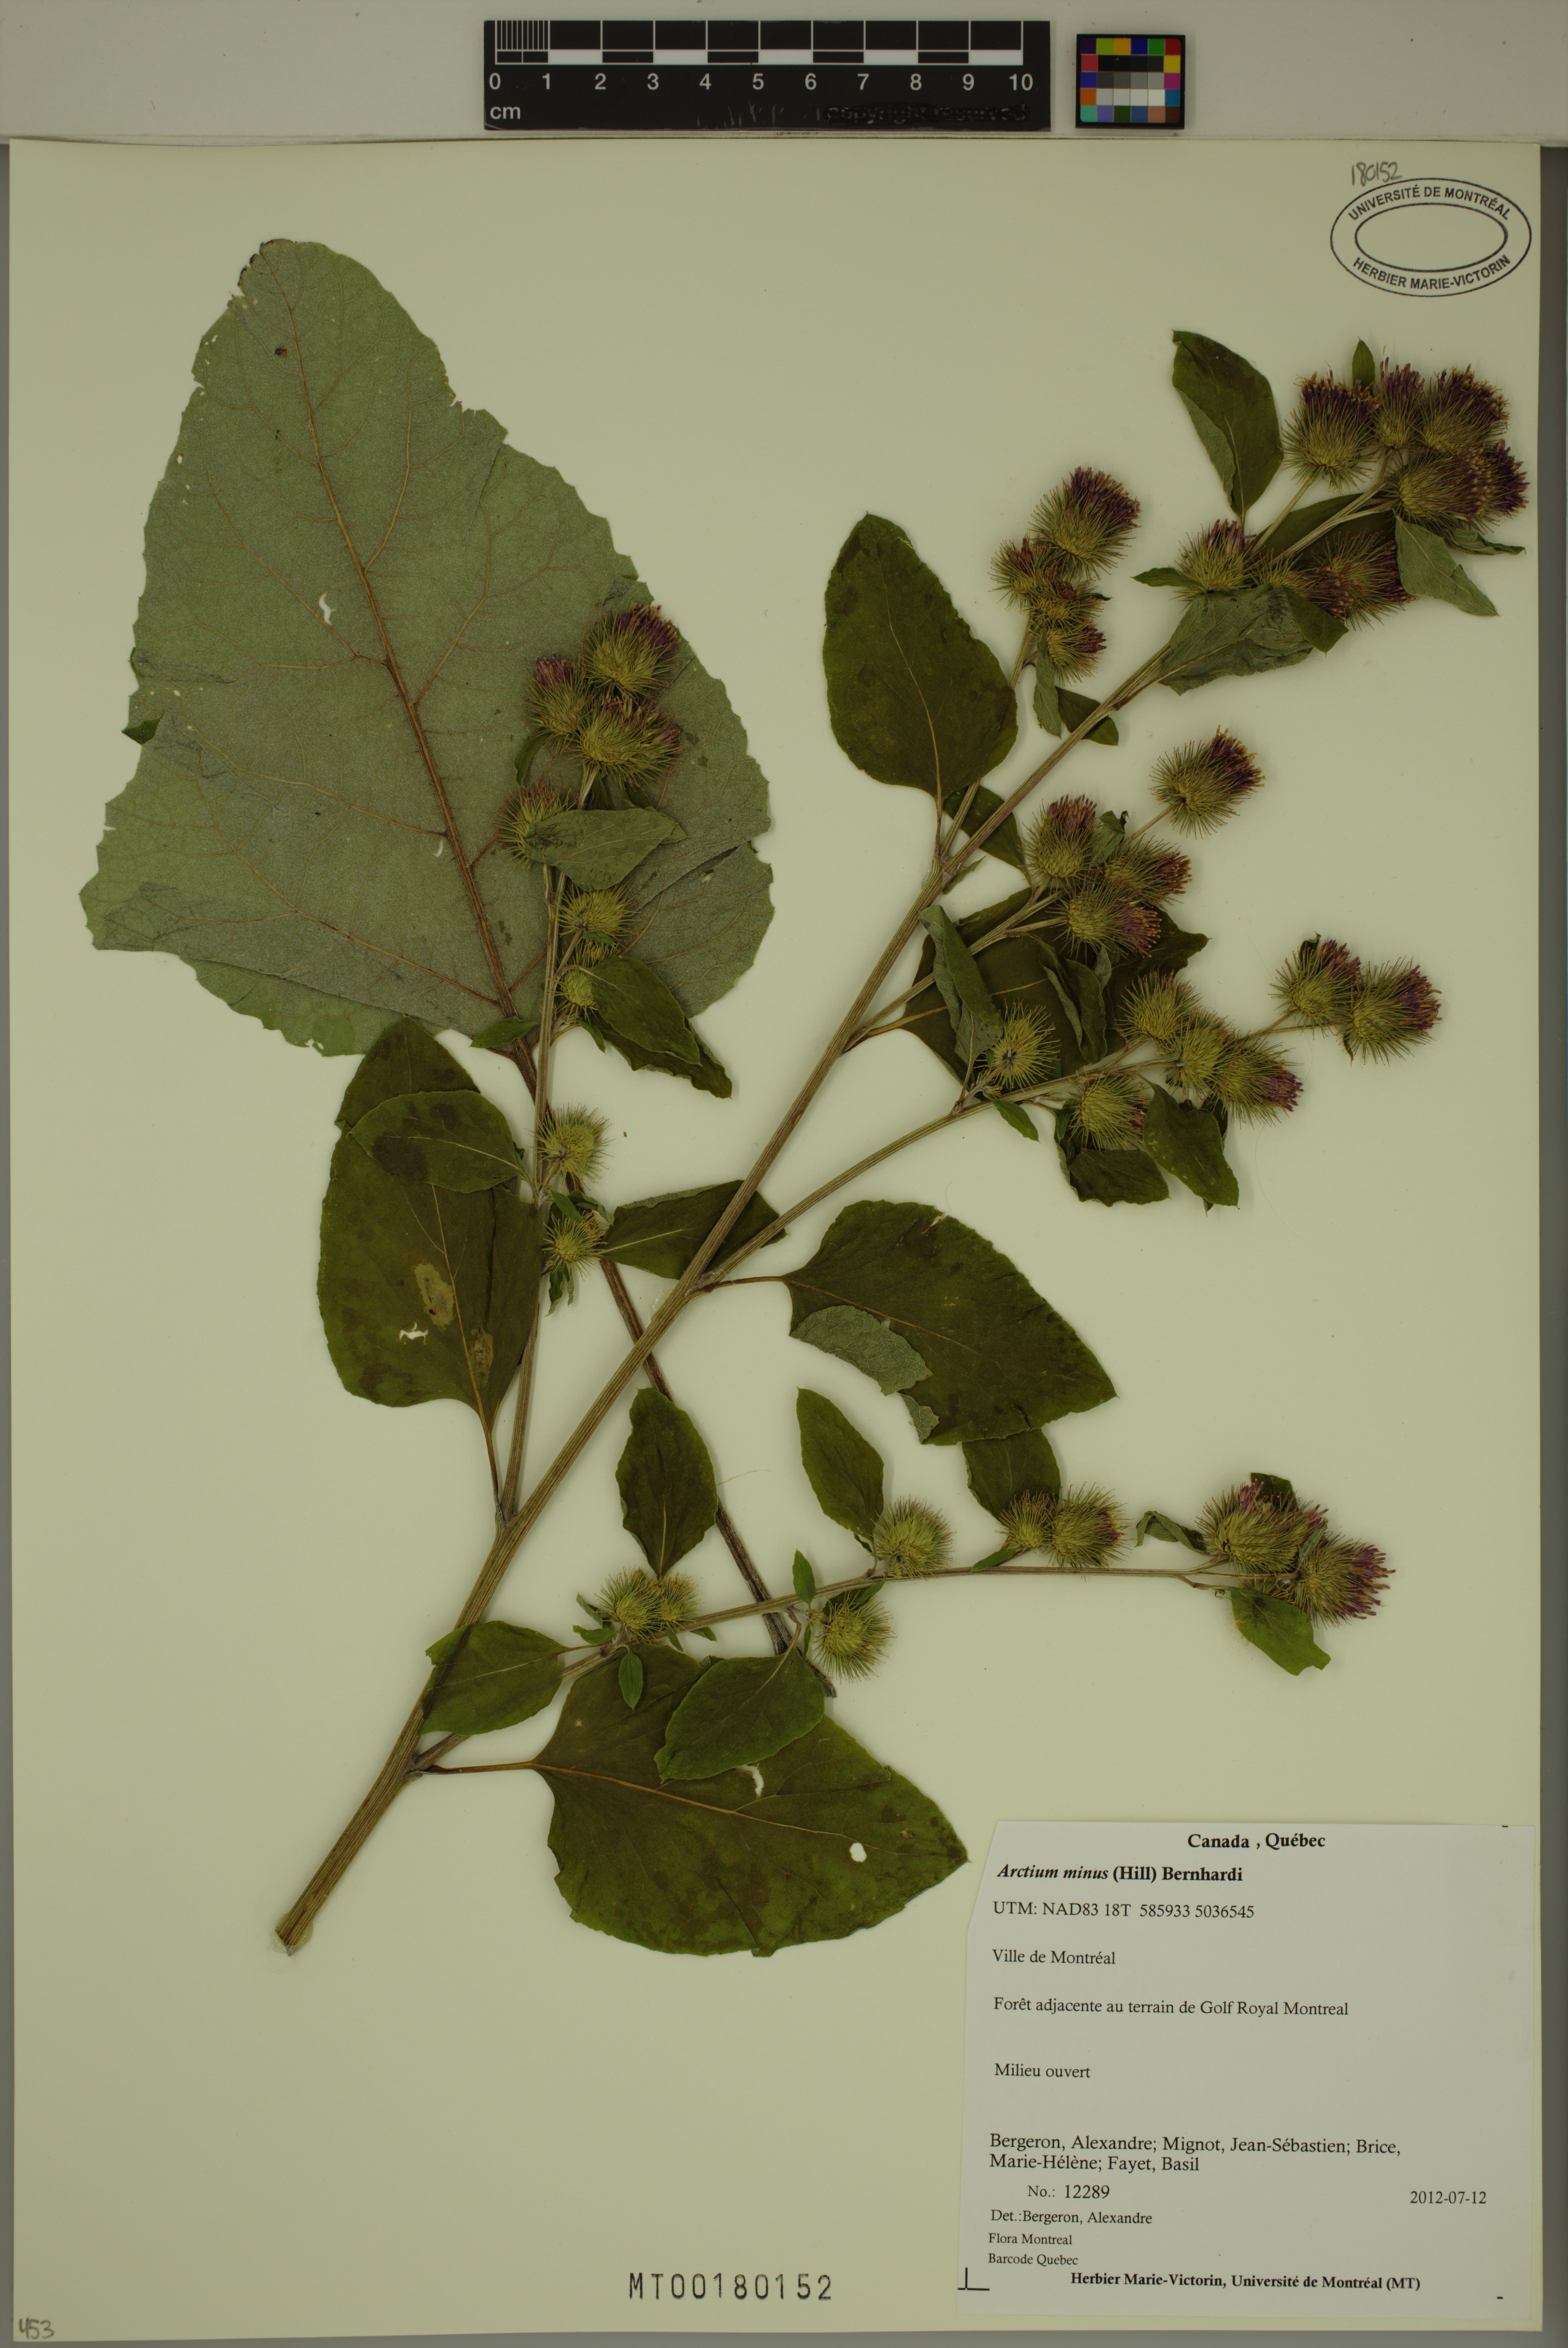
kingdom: Plantae
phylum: Tracheophyta
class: Magnoliopsida
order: Asterales
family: Asteraceae
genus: Arctium
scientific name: Arctium minus
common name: Lesser burdock
